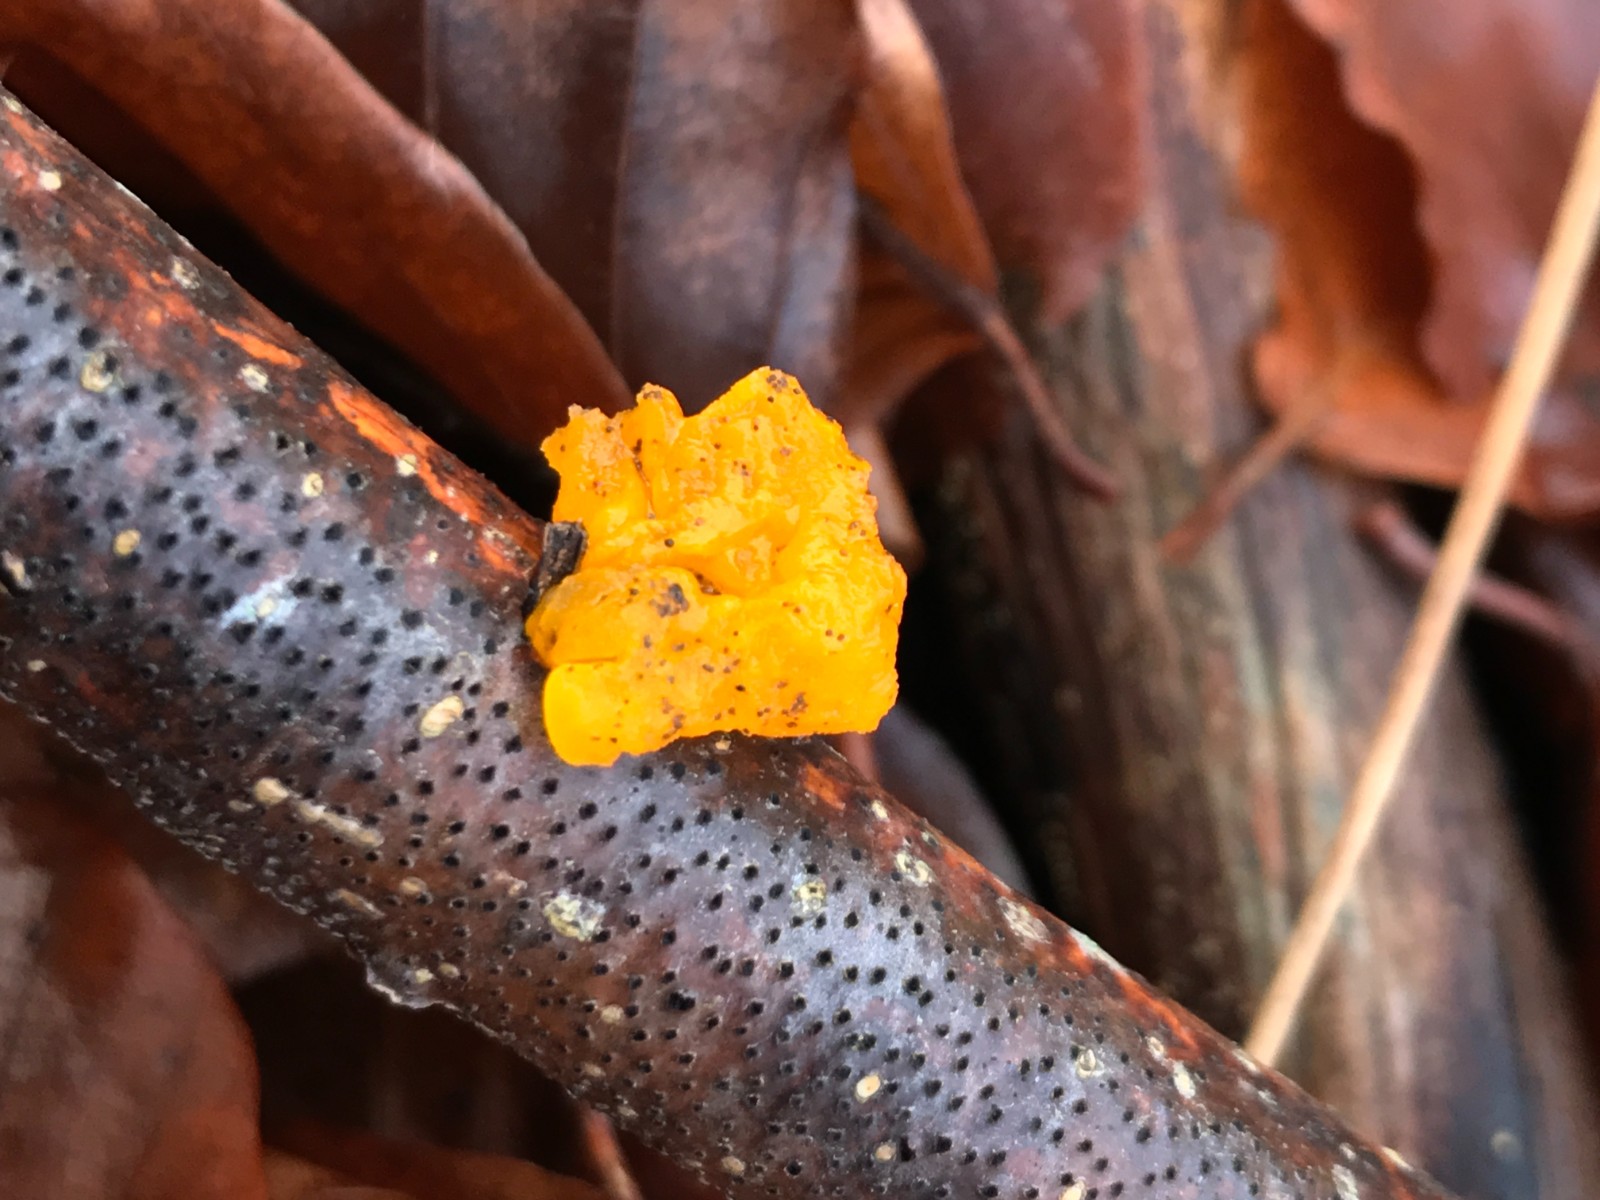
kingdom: Fungi
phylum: Basidiomycota
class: Tremellomycetes
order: Tremellales
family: Tremellaceae
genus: Tremella
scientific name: Tremella mesenterica
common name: gul bævresvamp
